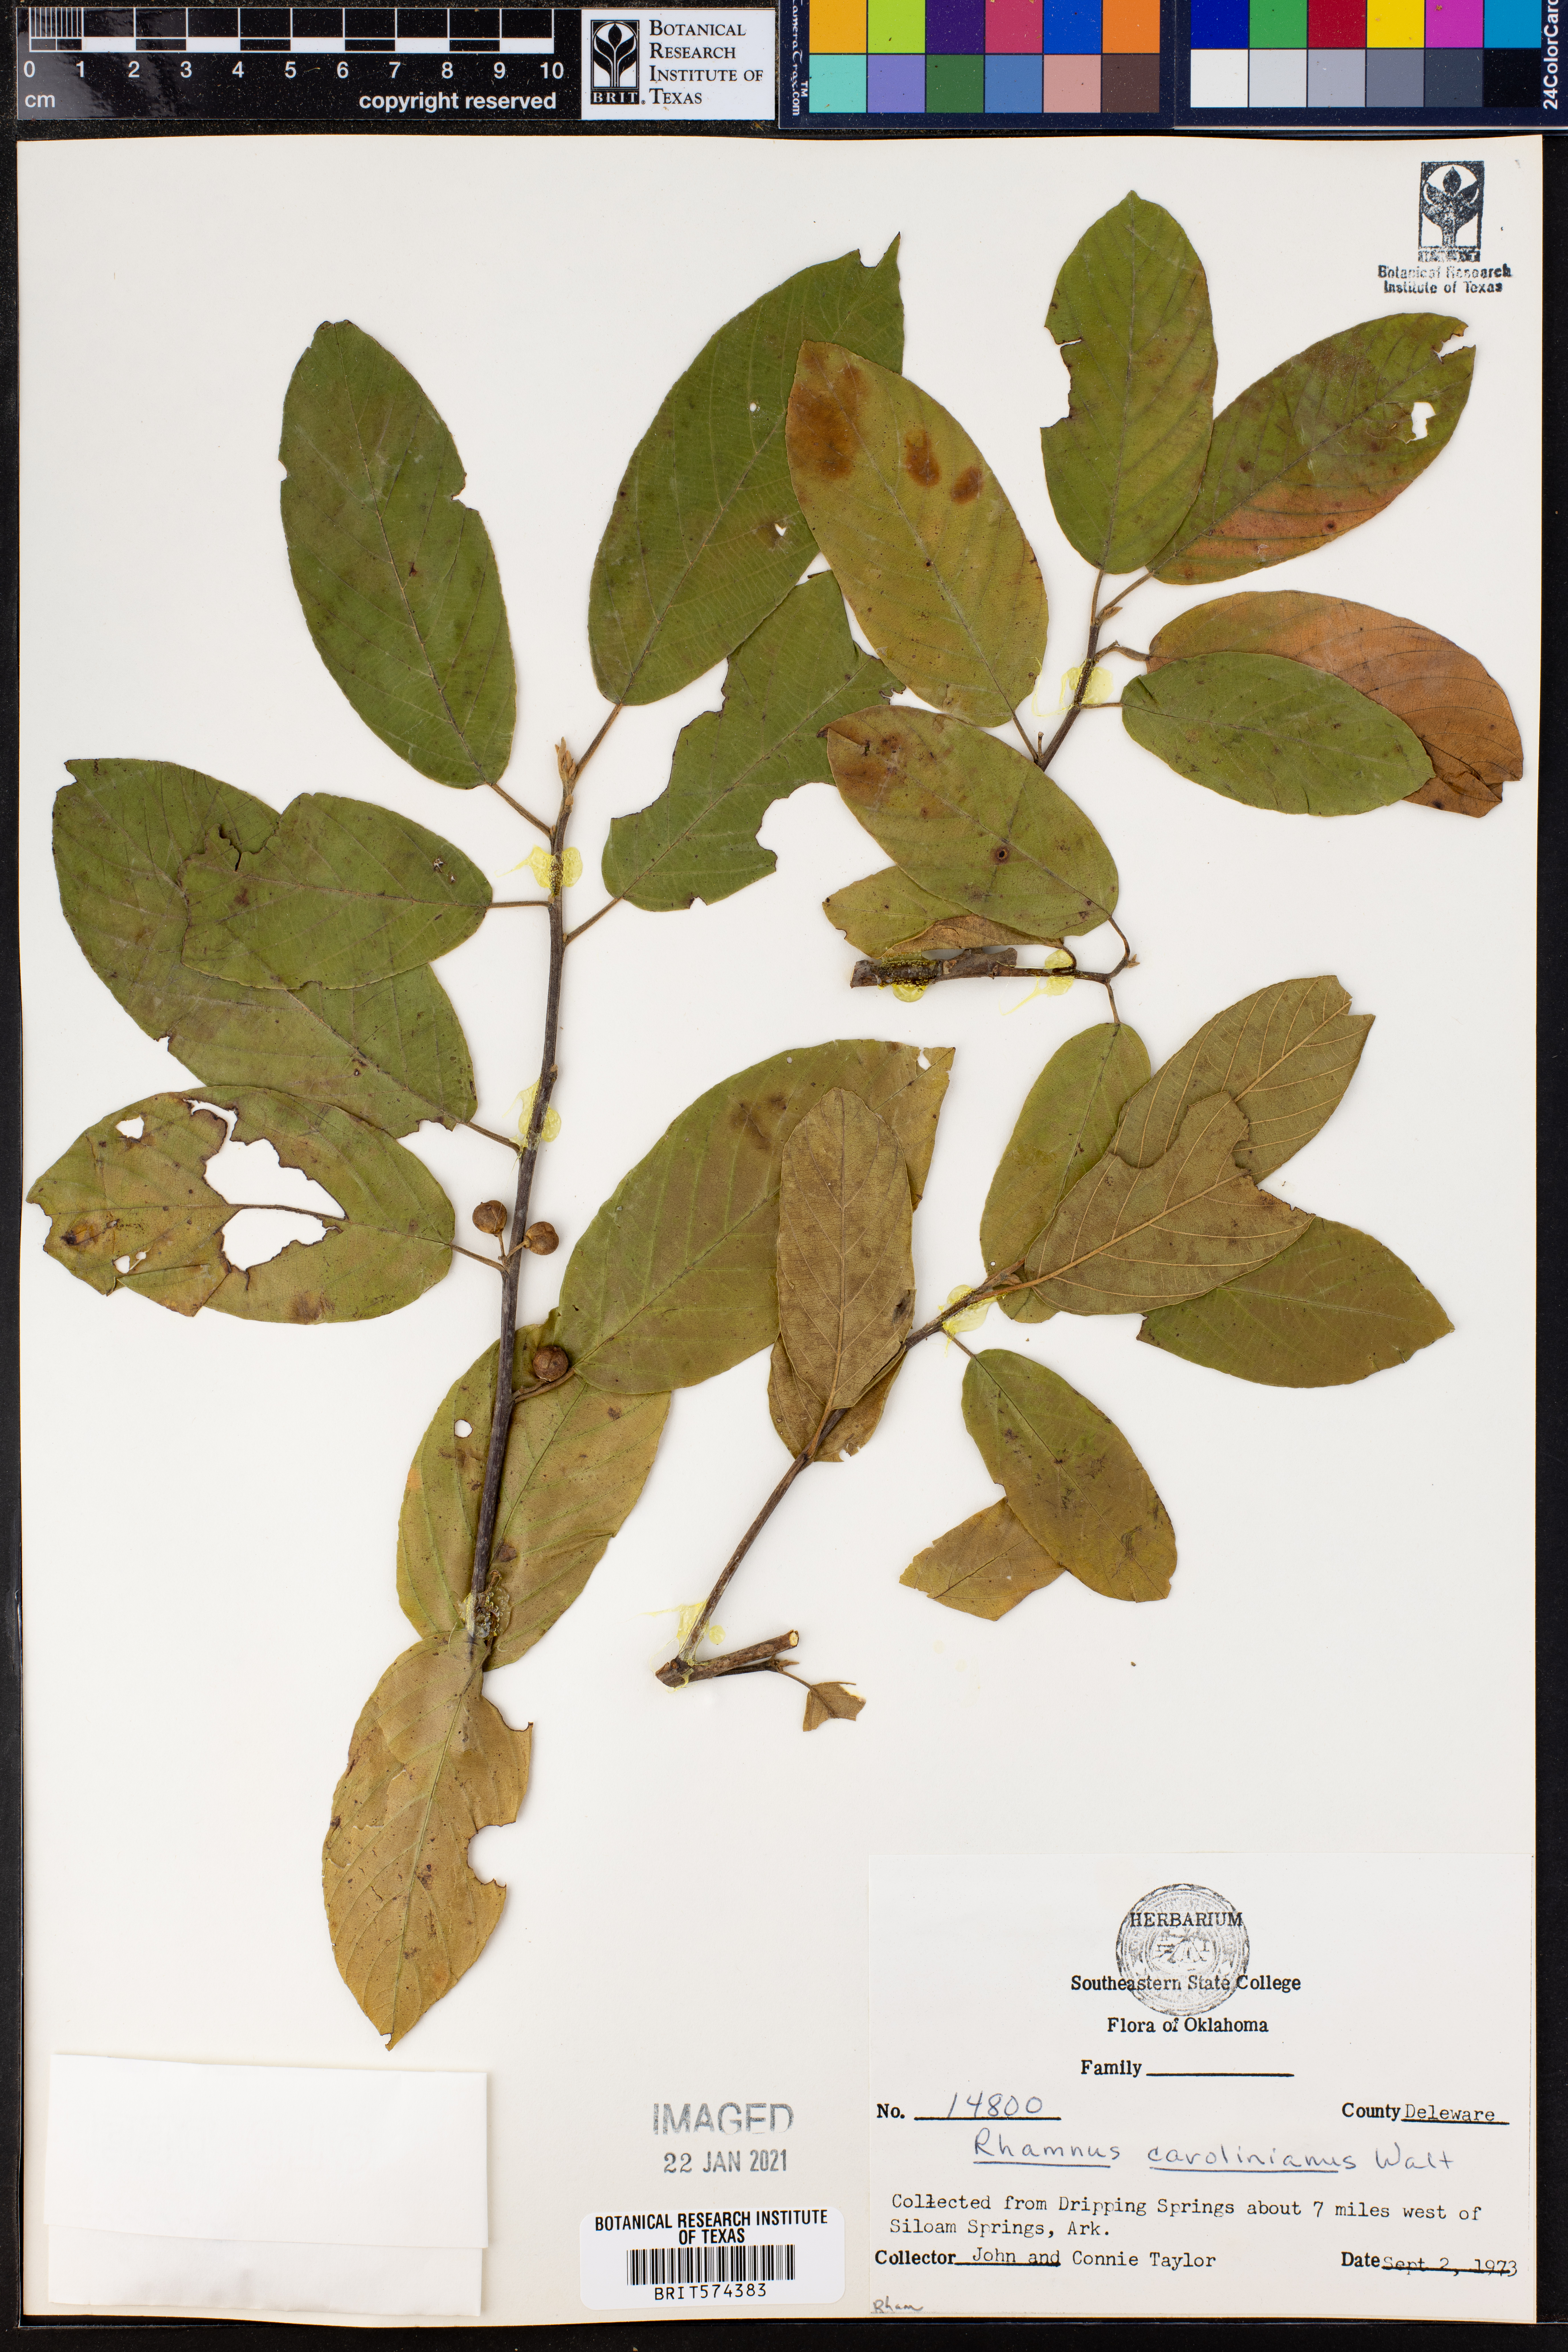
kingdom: Plantae
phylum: Tracheophyta
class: Magnoliopsida
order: Rosales
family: Rhamnaceae
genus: Frangula
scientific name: Frangula caroliniana
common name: Carolina buckthorn
